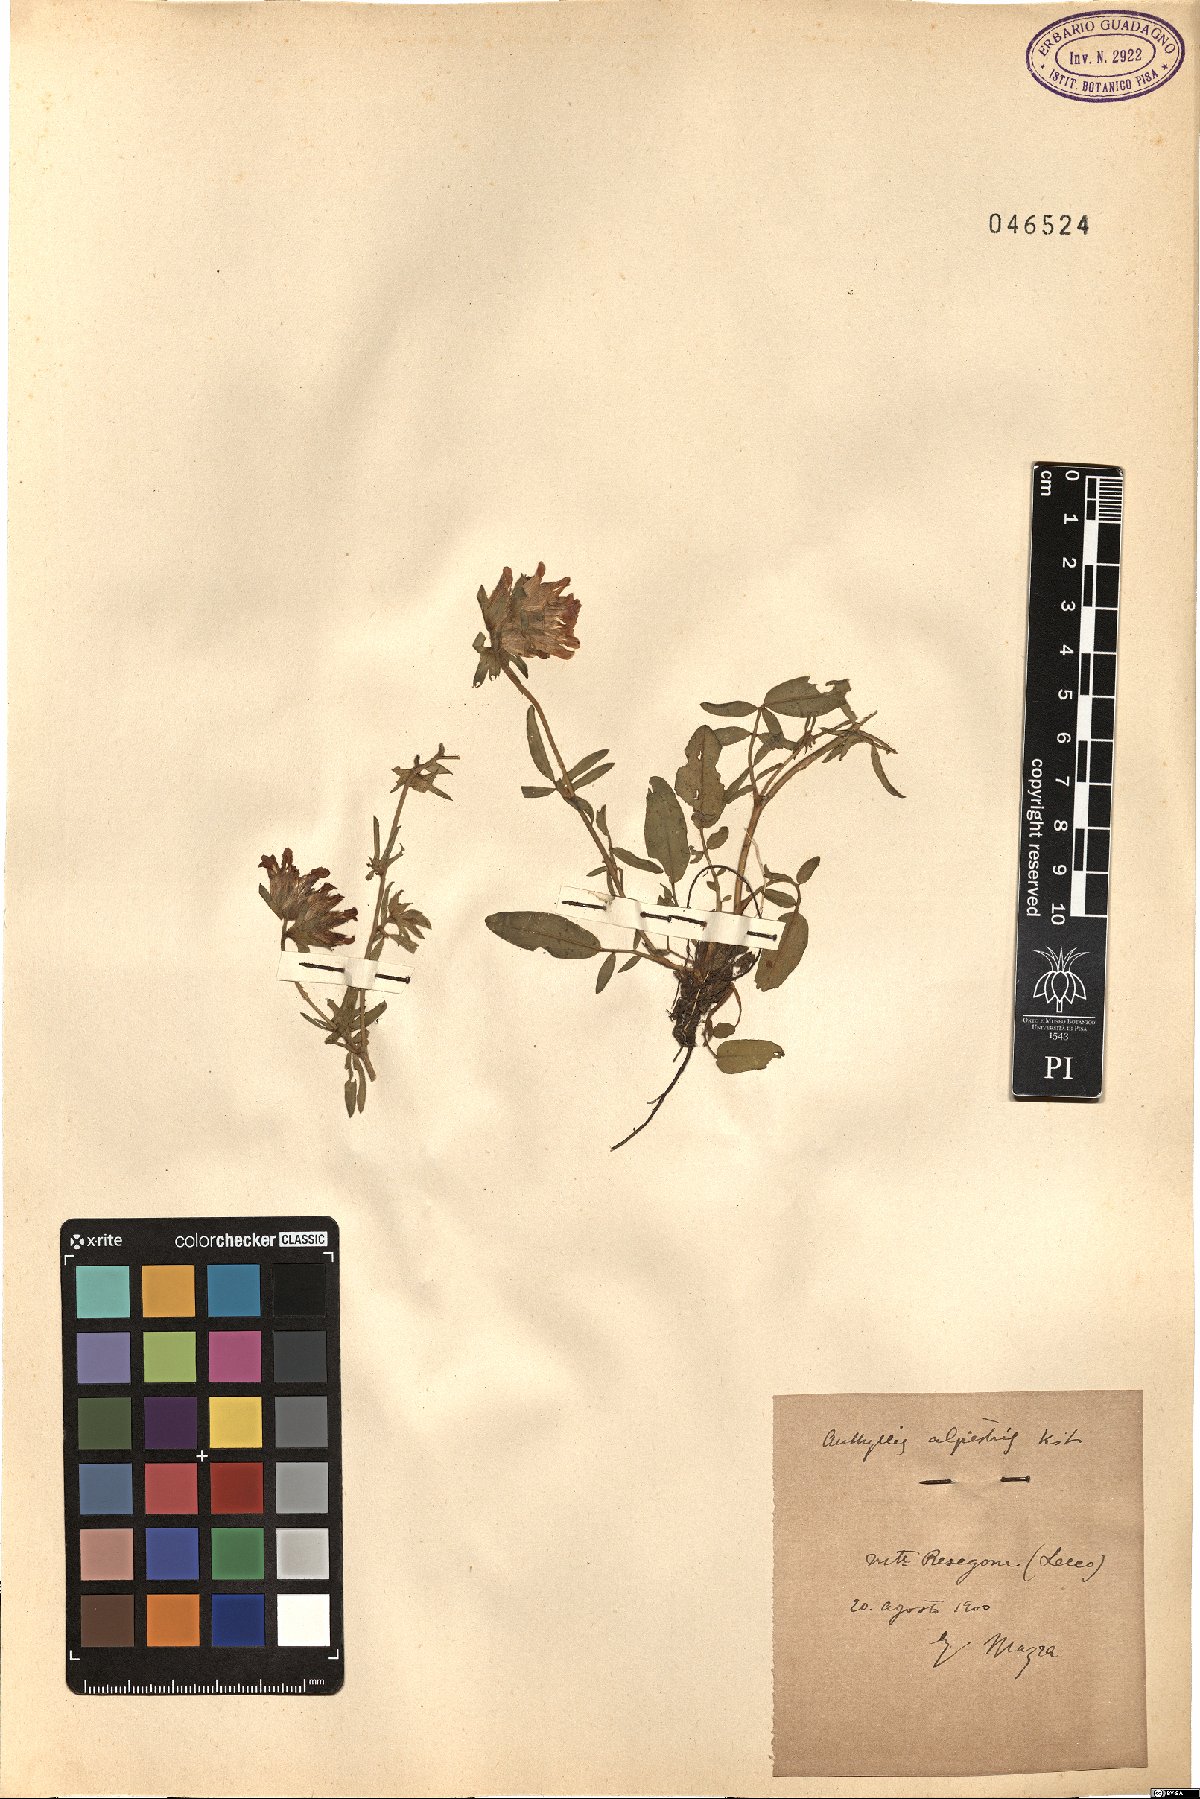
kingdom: Plantae
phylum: Tracheophyta
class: Magnoliopsida
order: Fabales
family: Fabaceae
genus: Anthyllis
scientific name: Anthyllis vulneraria
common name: Kidney vetch
